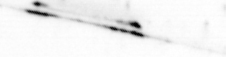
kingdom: Animalia
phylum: Chaetognatha
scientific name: Chaetognatha
